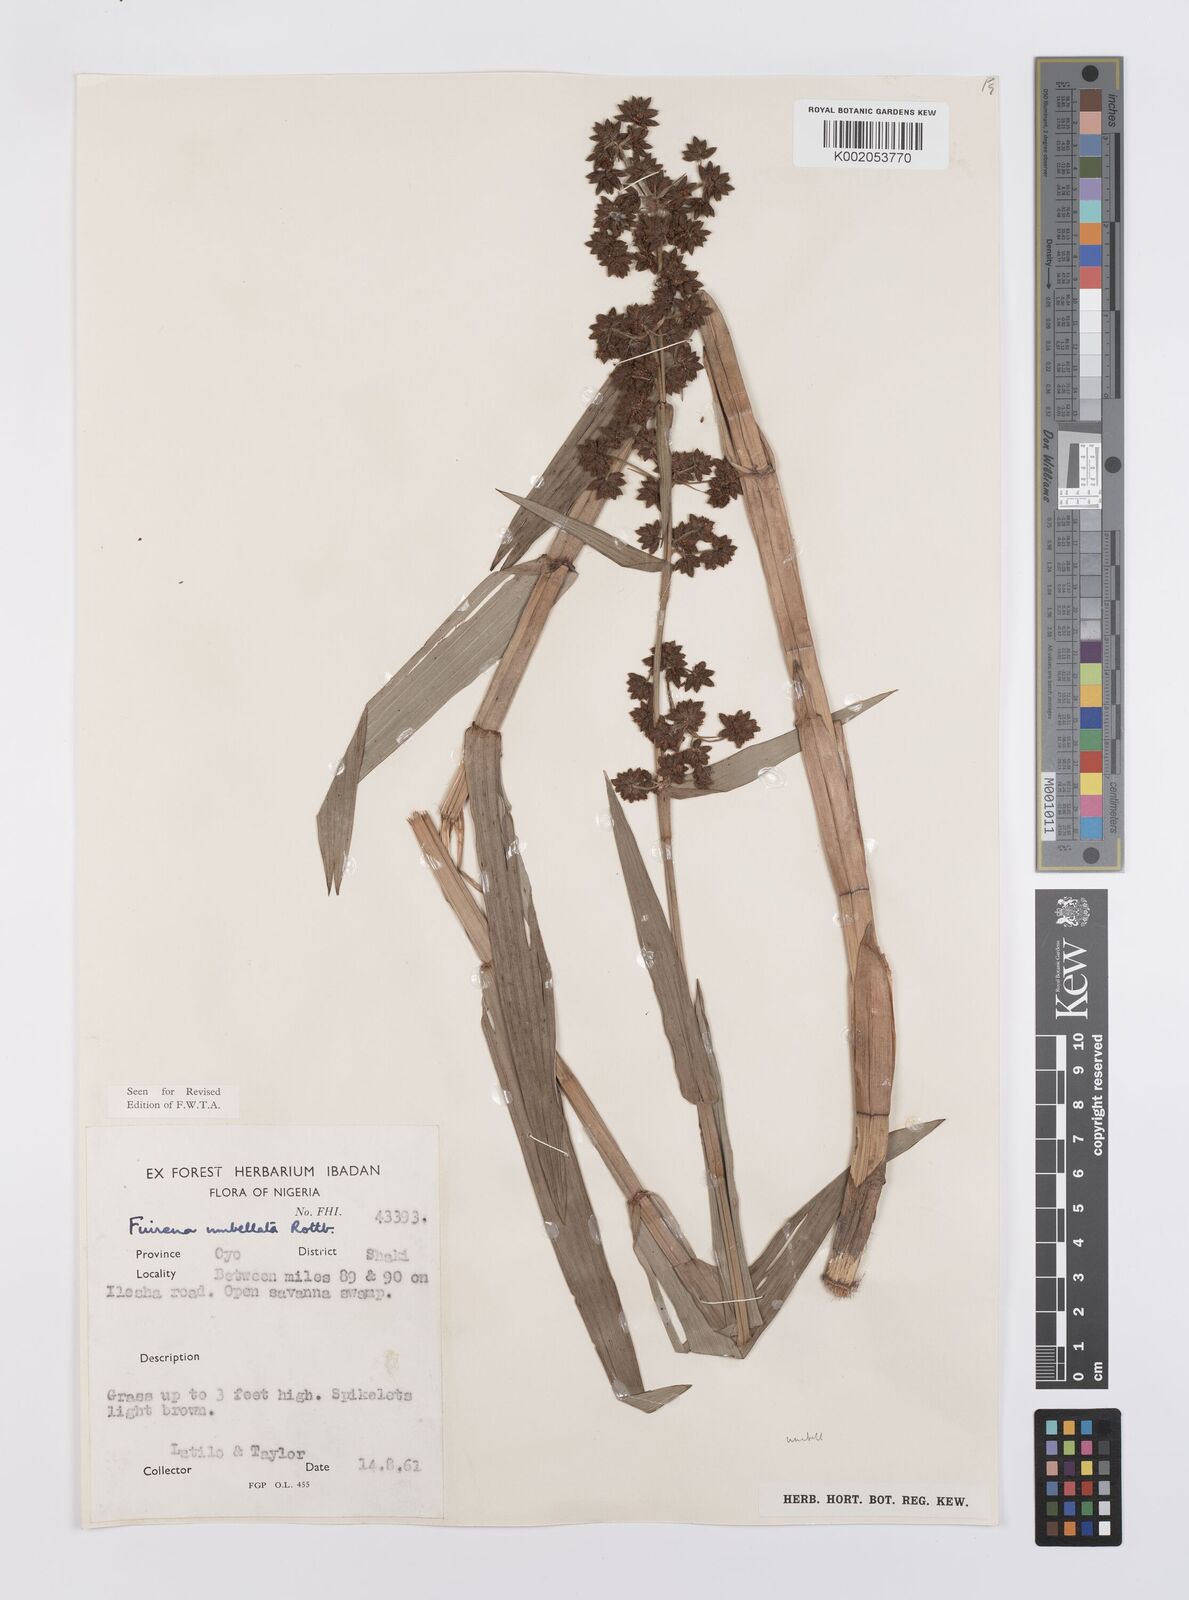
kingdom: Plantae
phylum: Tracheophyta
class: Liliopsida
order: Poales
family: Cyperaceae
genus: Fuirena
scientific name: Fuirena umbellata
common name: Yefen
